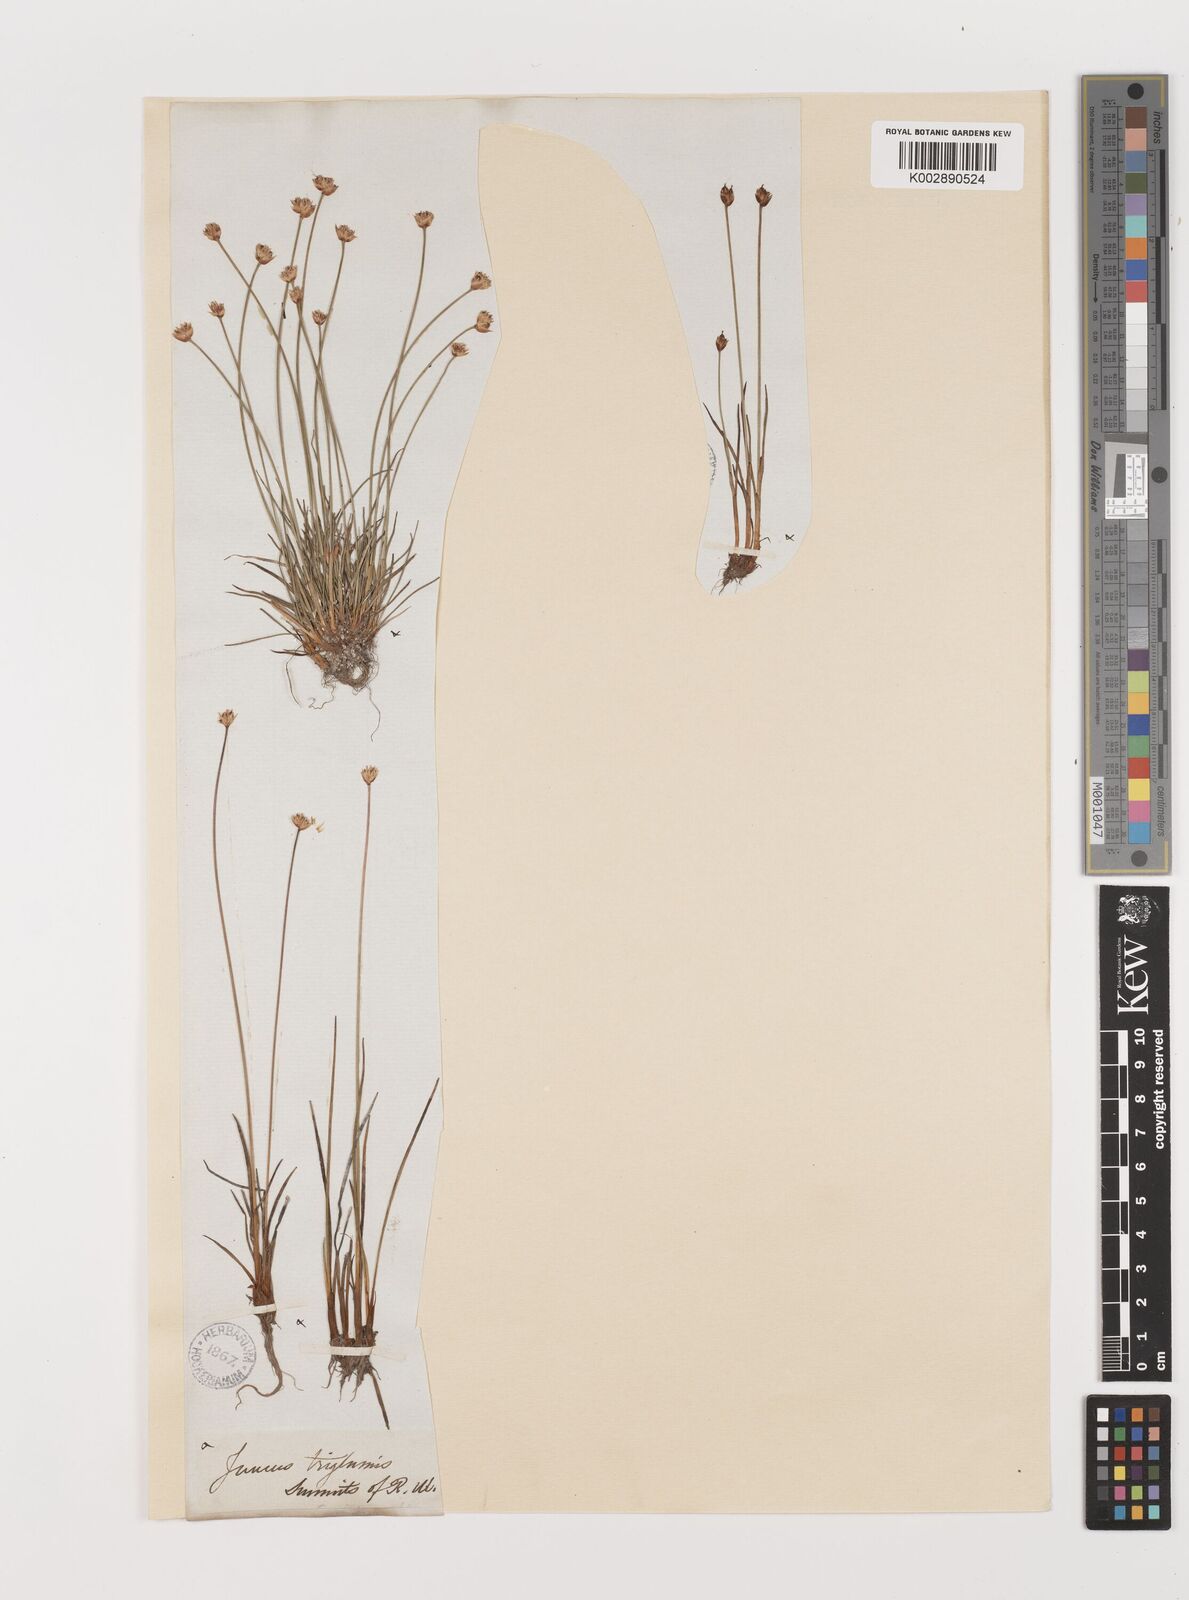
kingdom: Plantae
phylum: Tracheophyta
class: Liliopsida
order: Poales
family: Juncaceae
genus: Juncus
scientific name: Juncus triglumis
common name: Three-flowered rush
